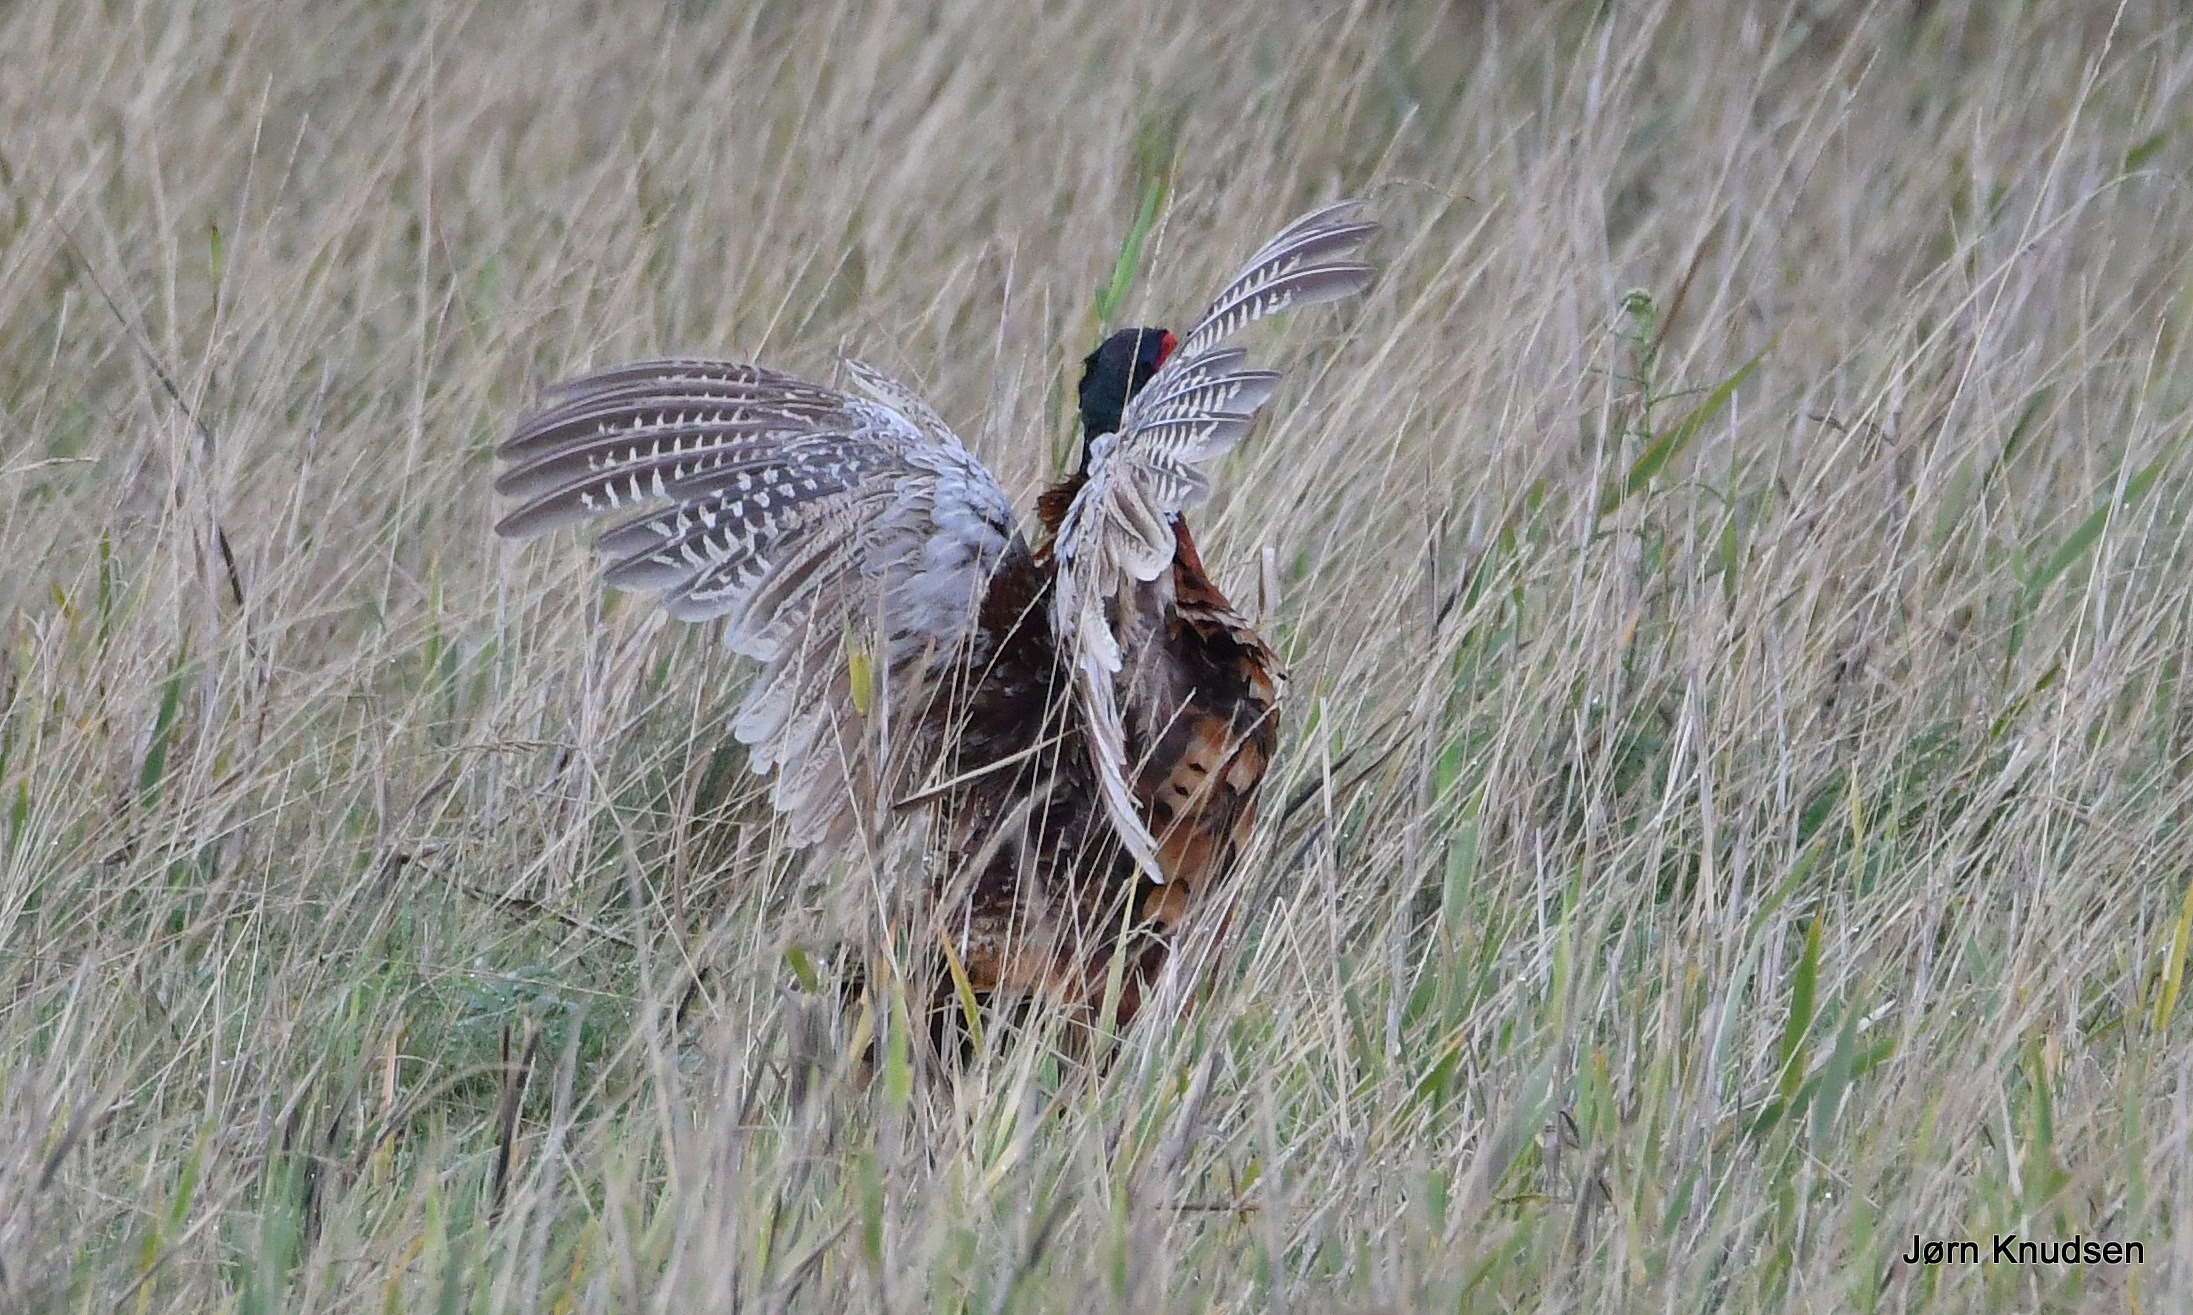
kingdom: Animalia
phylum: Chordata
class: Aves
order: Galliformes
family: Phasianidae
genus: Phasianus
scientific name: Phasianus colchicus
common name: Fasan
